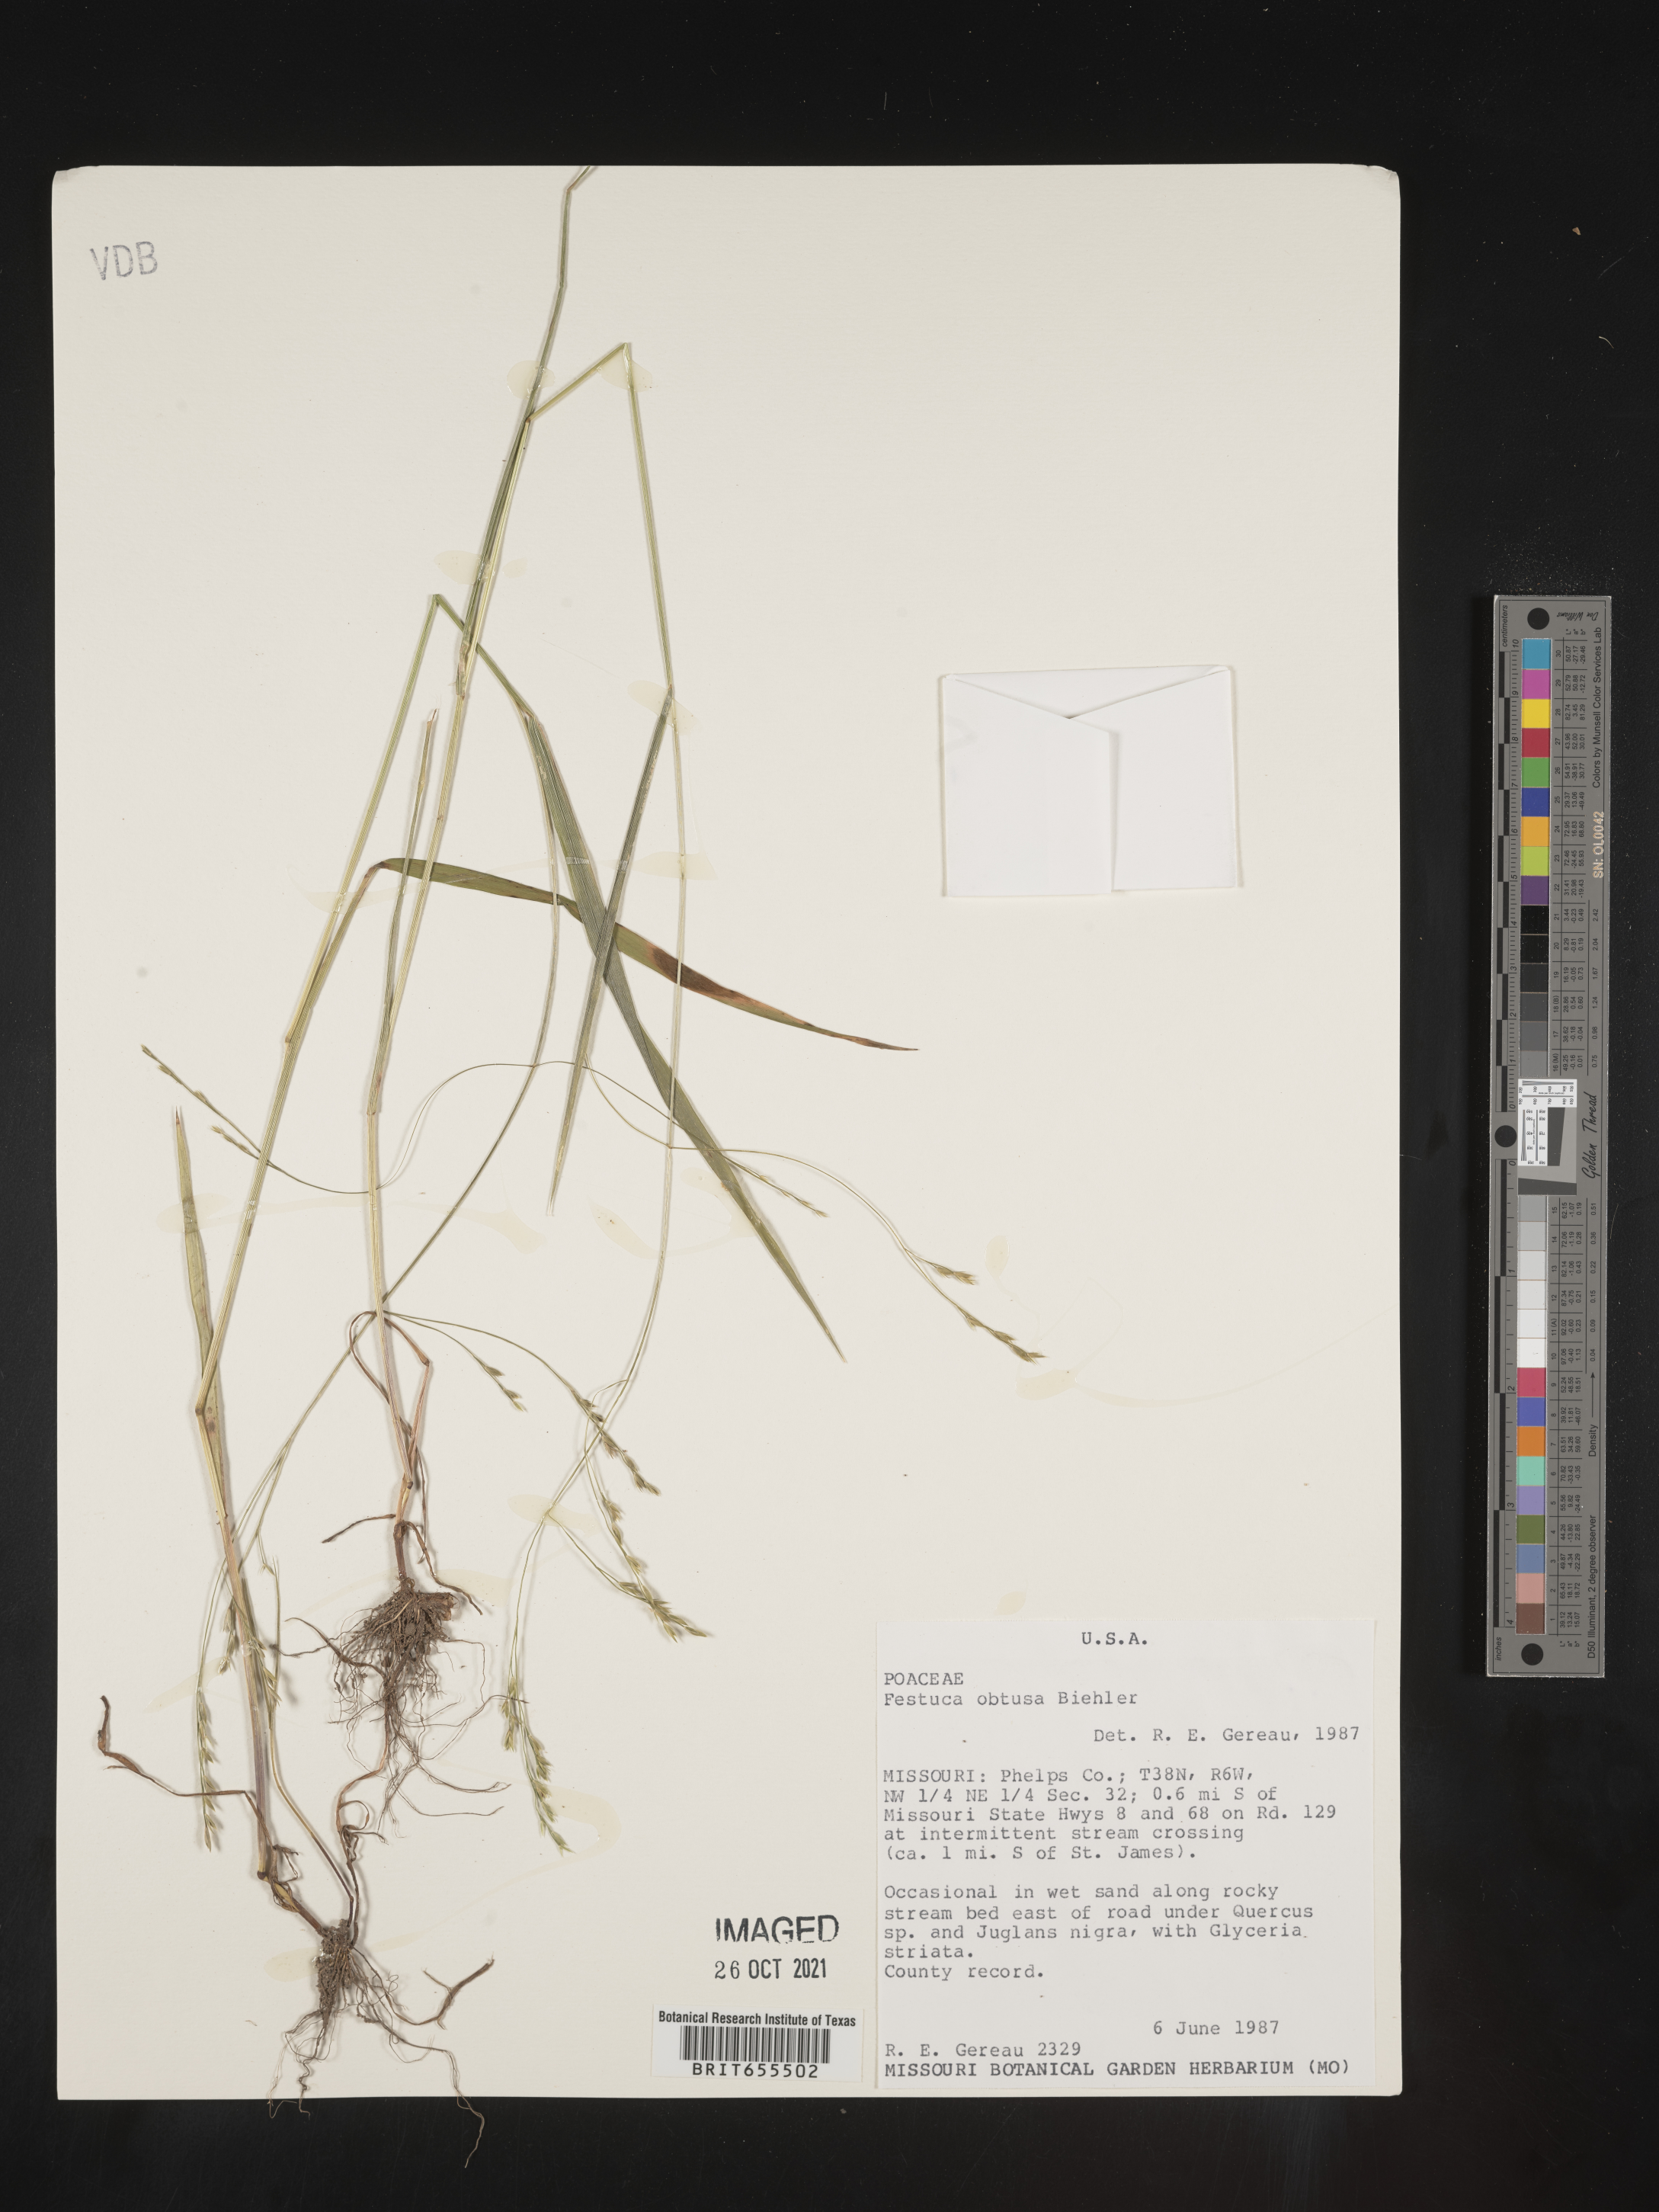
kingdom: Plantae
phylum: Tracheophyta
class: Liliopsida
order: Poales
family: Poaceae
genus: Festuca
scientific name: Festuca
